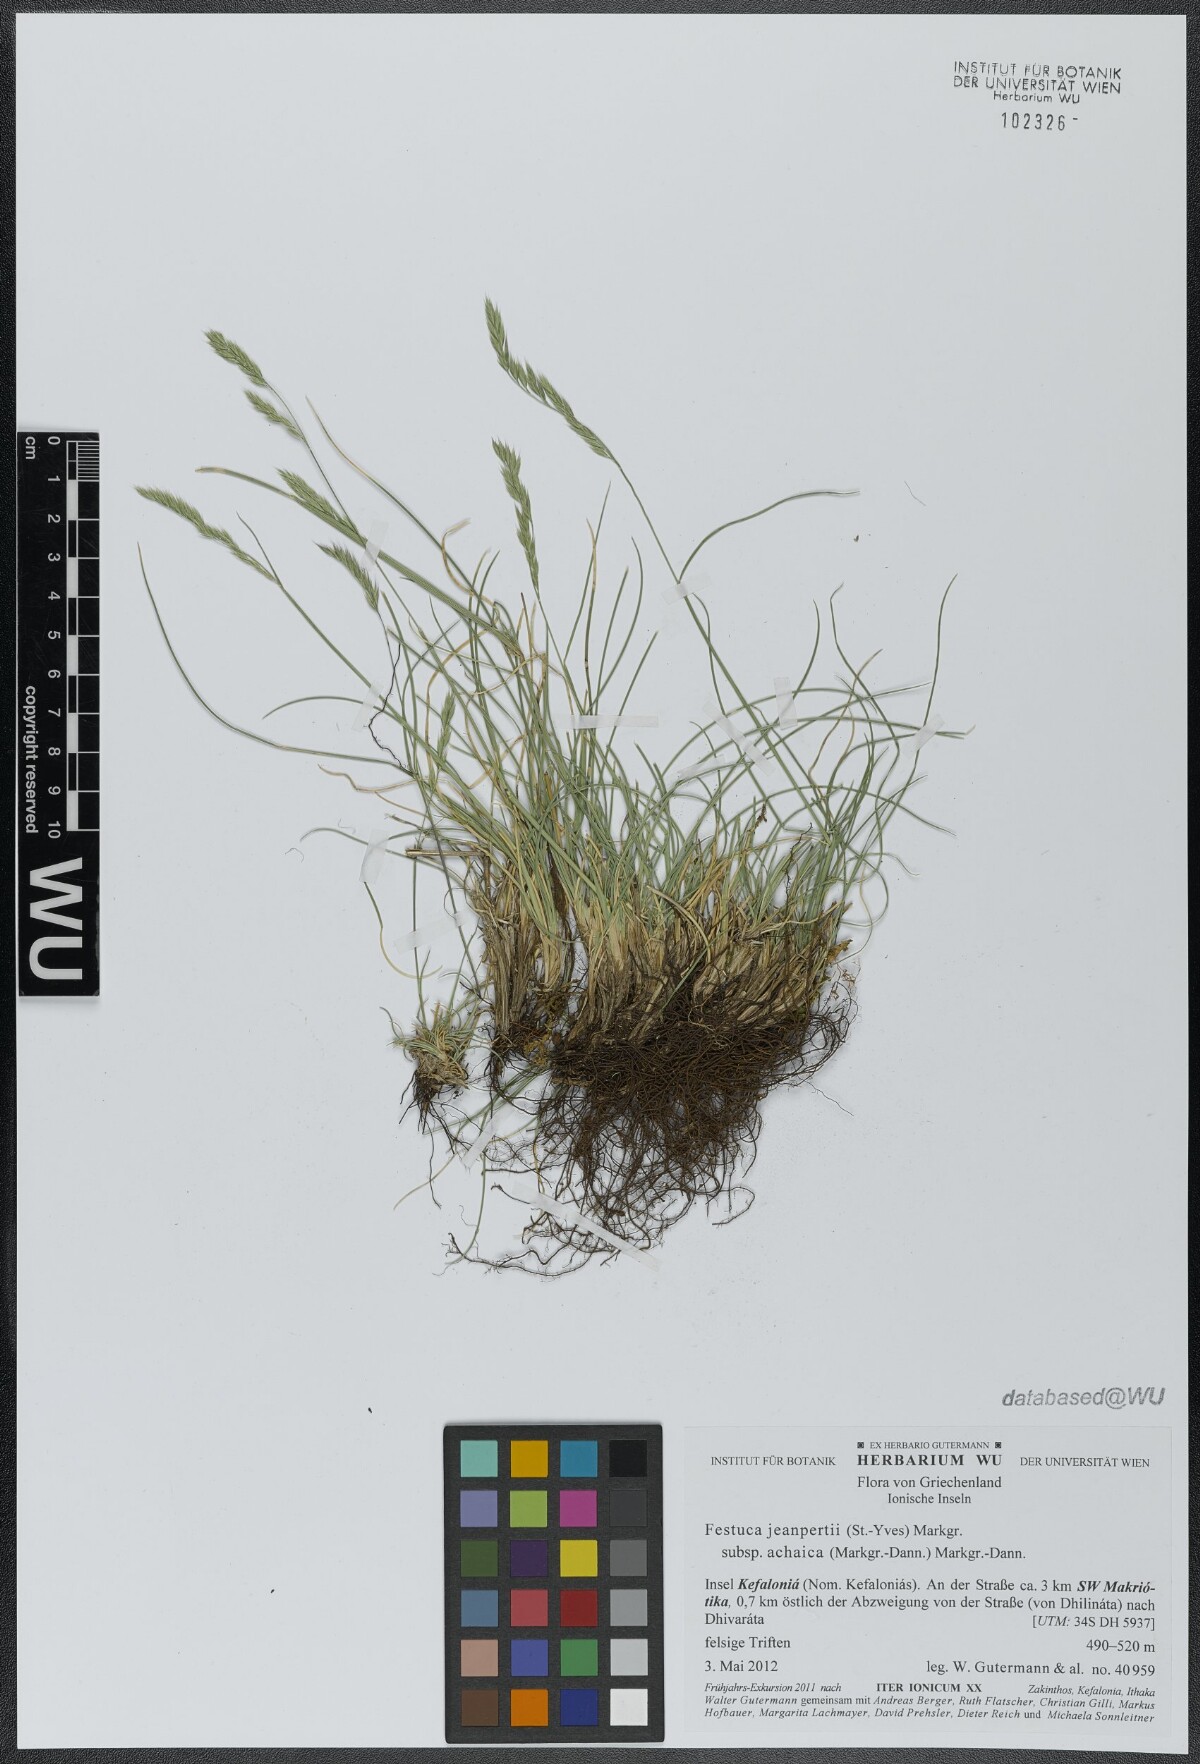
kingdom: Plantae
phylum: Tracheophyta
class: Liliopsida
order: Poales
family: Poaceae
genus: Festuca
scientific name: Festuca jeanpertii
